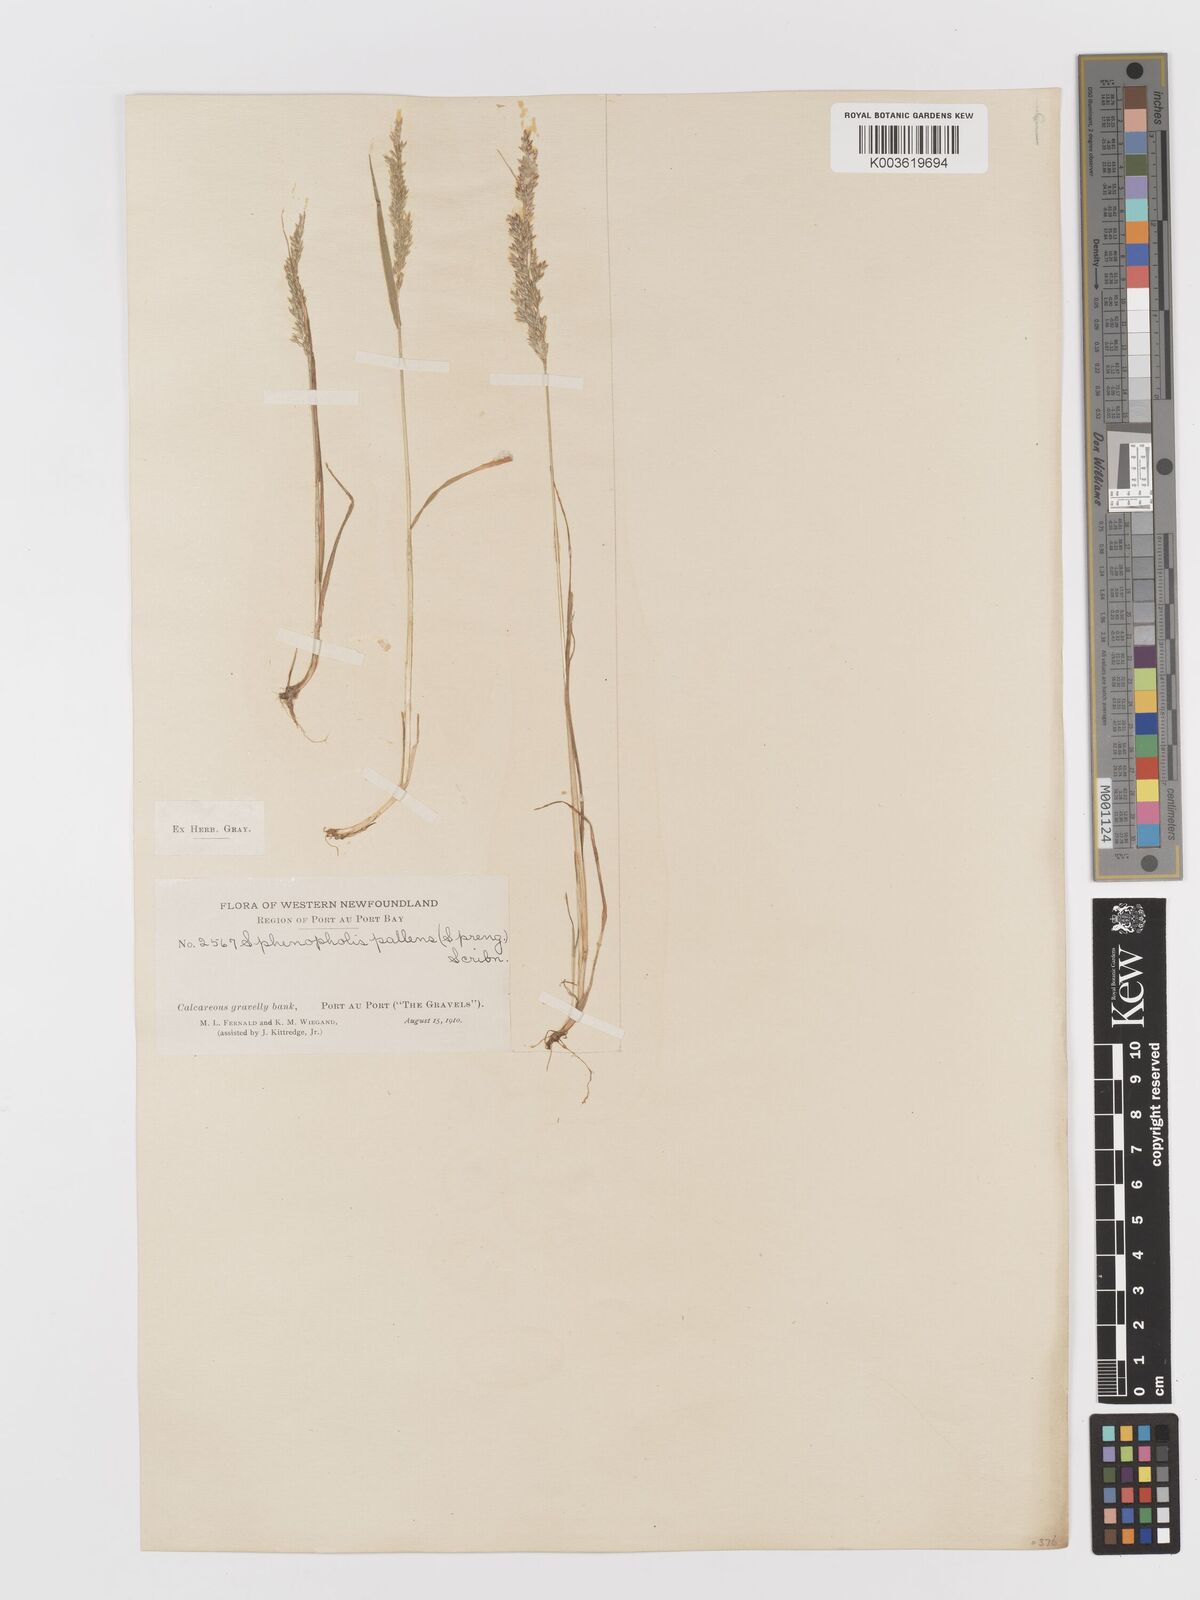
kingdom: Plantae
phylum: Tracheophyta
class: Liliopsida
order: Poales
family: Poaceae
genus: Sphenopholis
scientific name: Sphenopholis obtusata
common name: Prairie grass
